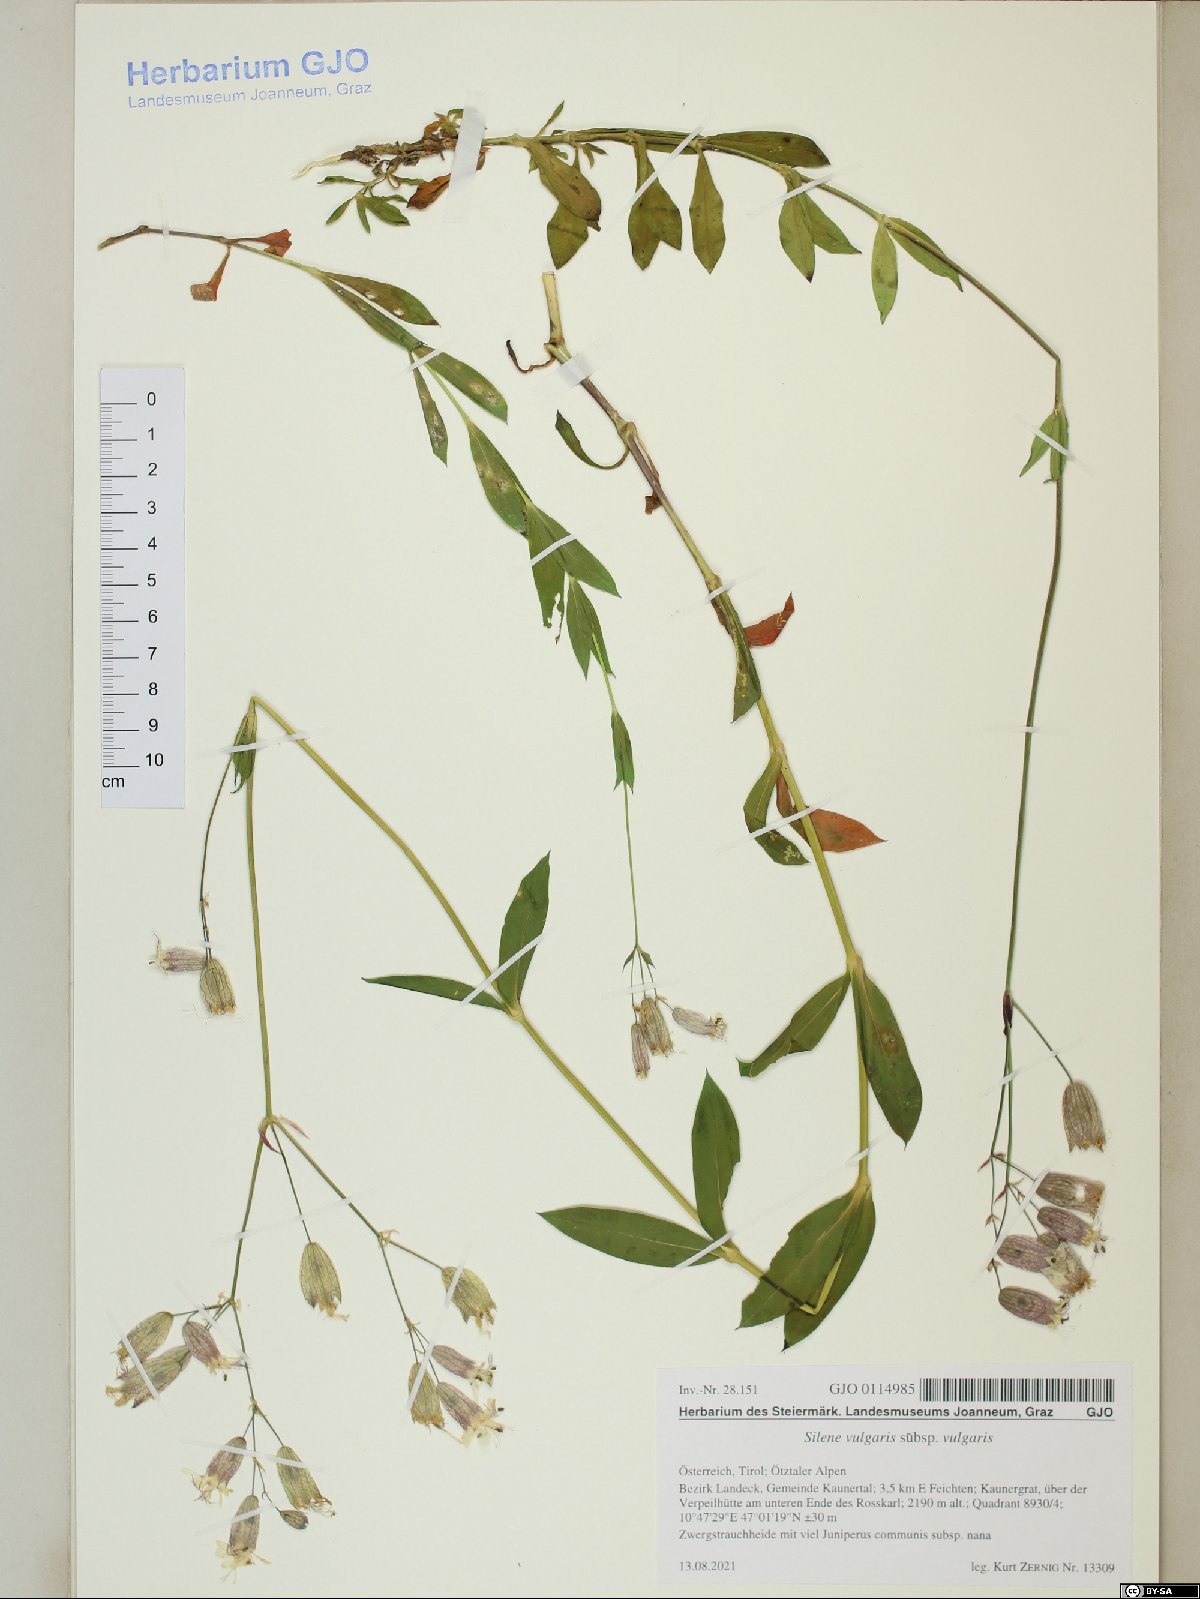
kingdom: Plantae
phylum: Tracheophyta
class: Magnoliopsida
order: Caryophyllales
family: Caryophyllaceae
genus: Silene
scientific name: Silene vulgaris
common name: Bladder campion
